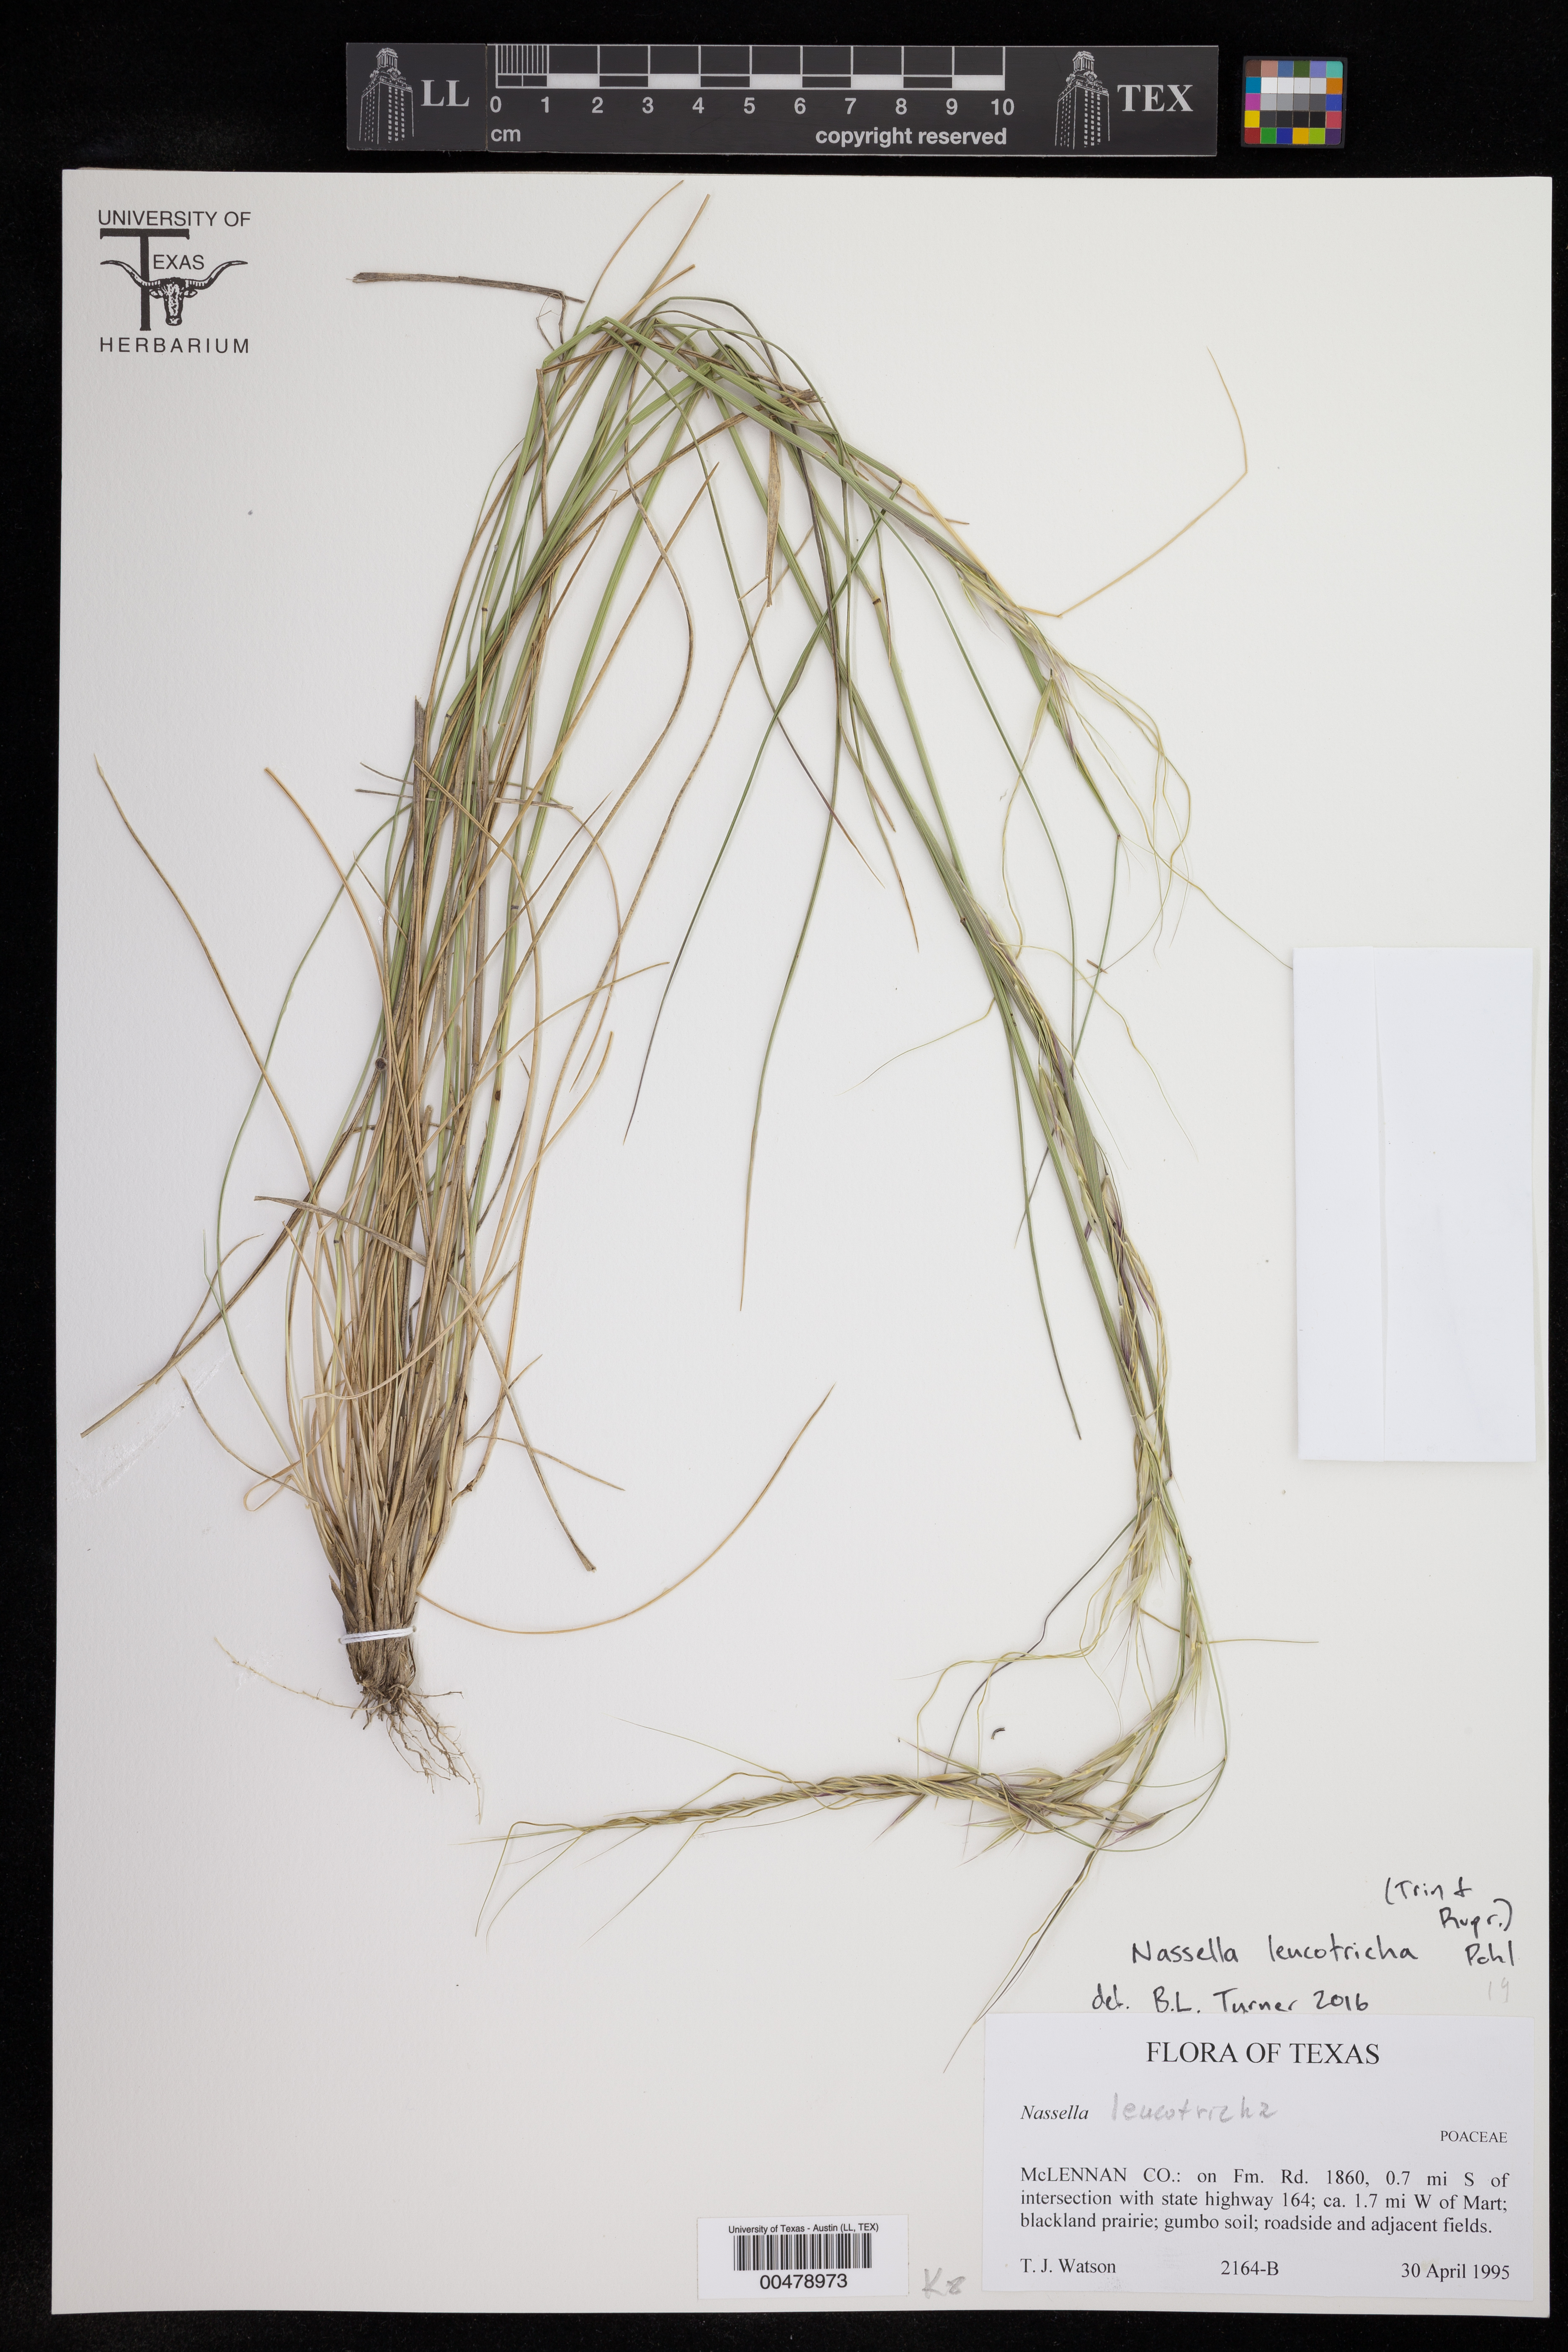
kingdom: Plantae
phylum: Tracheophyta
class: Liliopsida
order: Poales
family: Poaceae
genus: Nassella
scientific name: Nassella leucotricha
